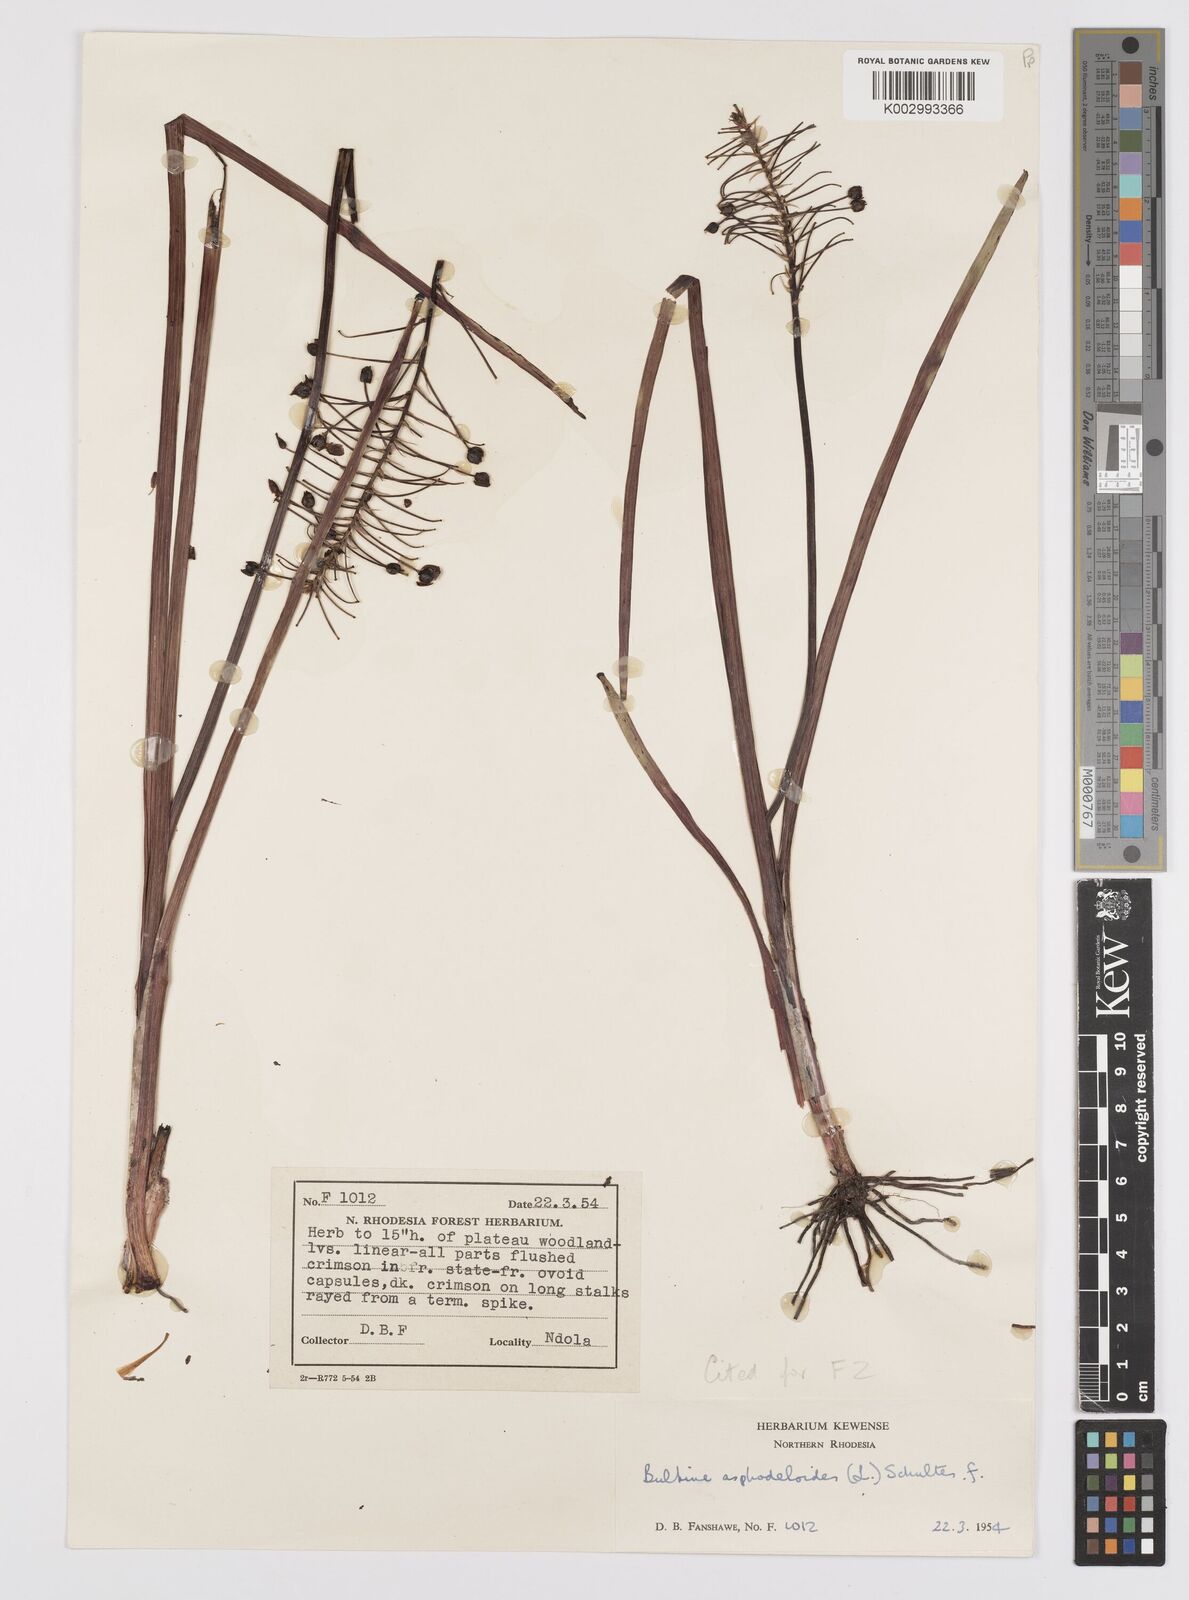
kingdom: Plantae
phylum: Tracheophyta
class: Liliopsida
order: Asparagales
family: Asphodelaceae
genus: Bulbine
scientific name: Bulbine abyssinica
